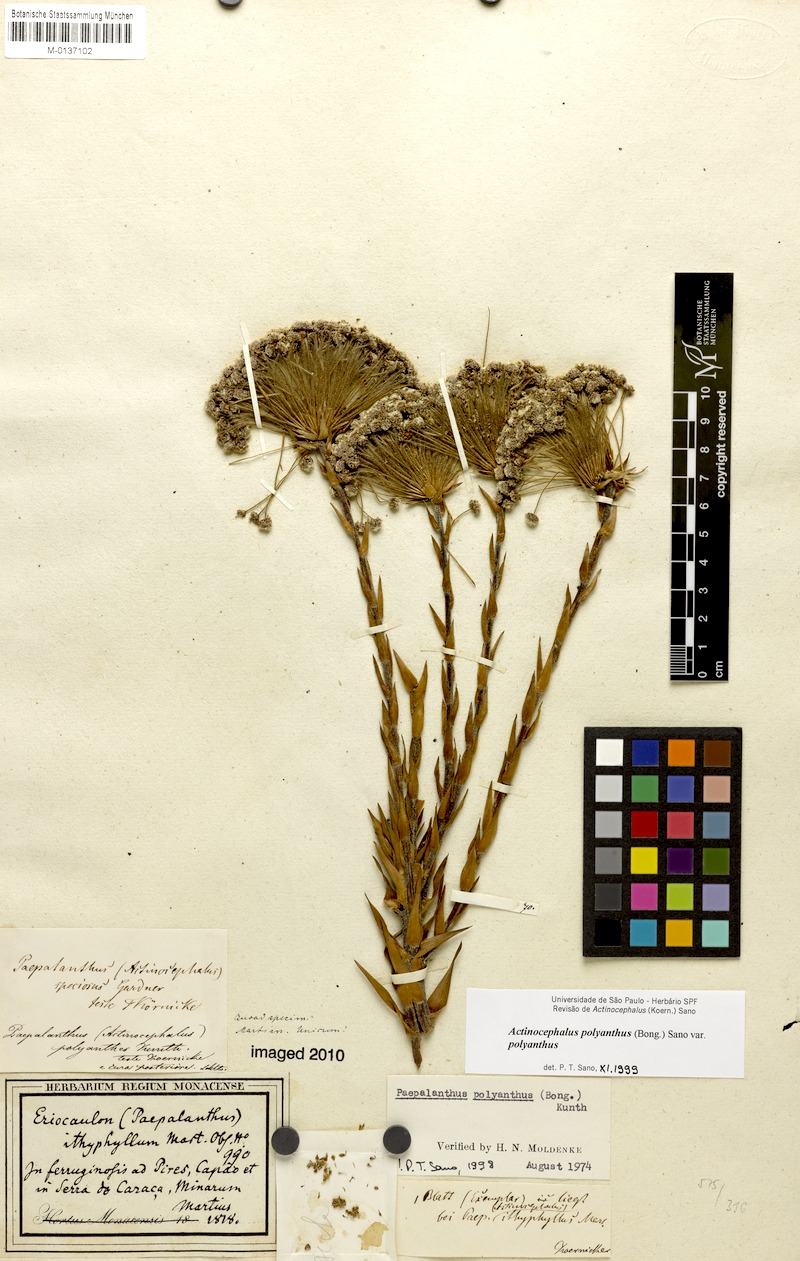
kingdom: Plantae
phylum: Tracheophyta
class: Liliopsida
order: Poales
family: Eriocaulaceae
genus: Paepalanthus
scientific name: Paepalanthus ithyphyllus
